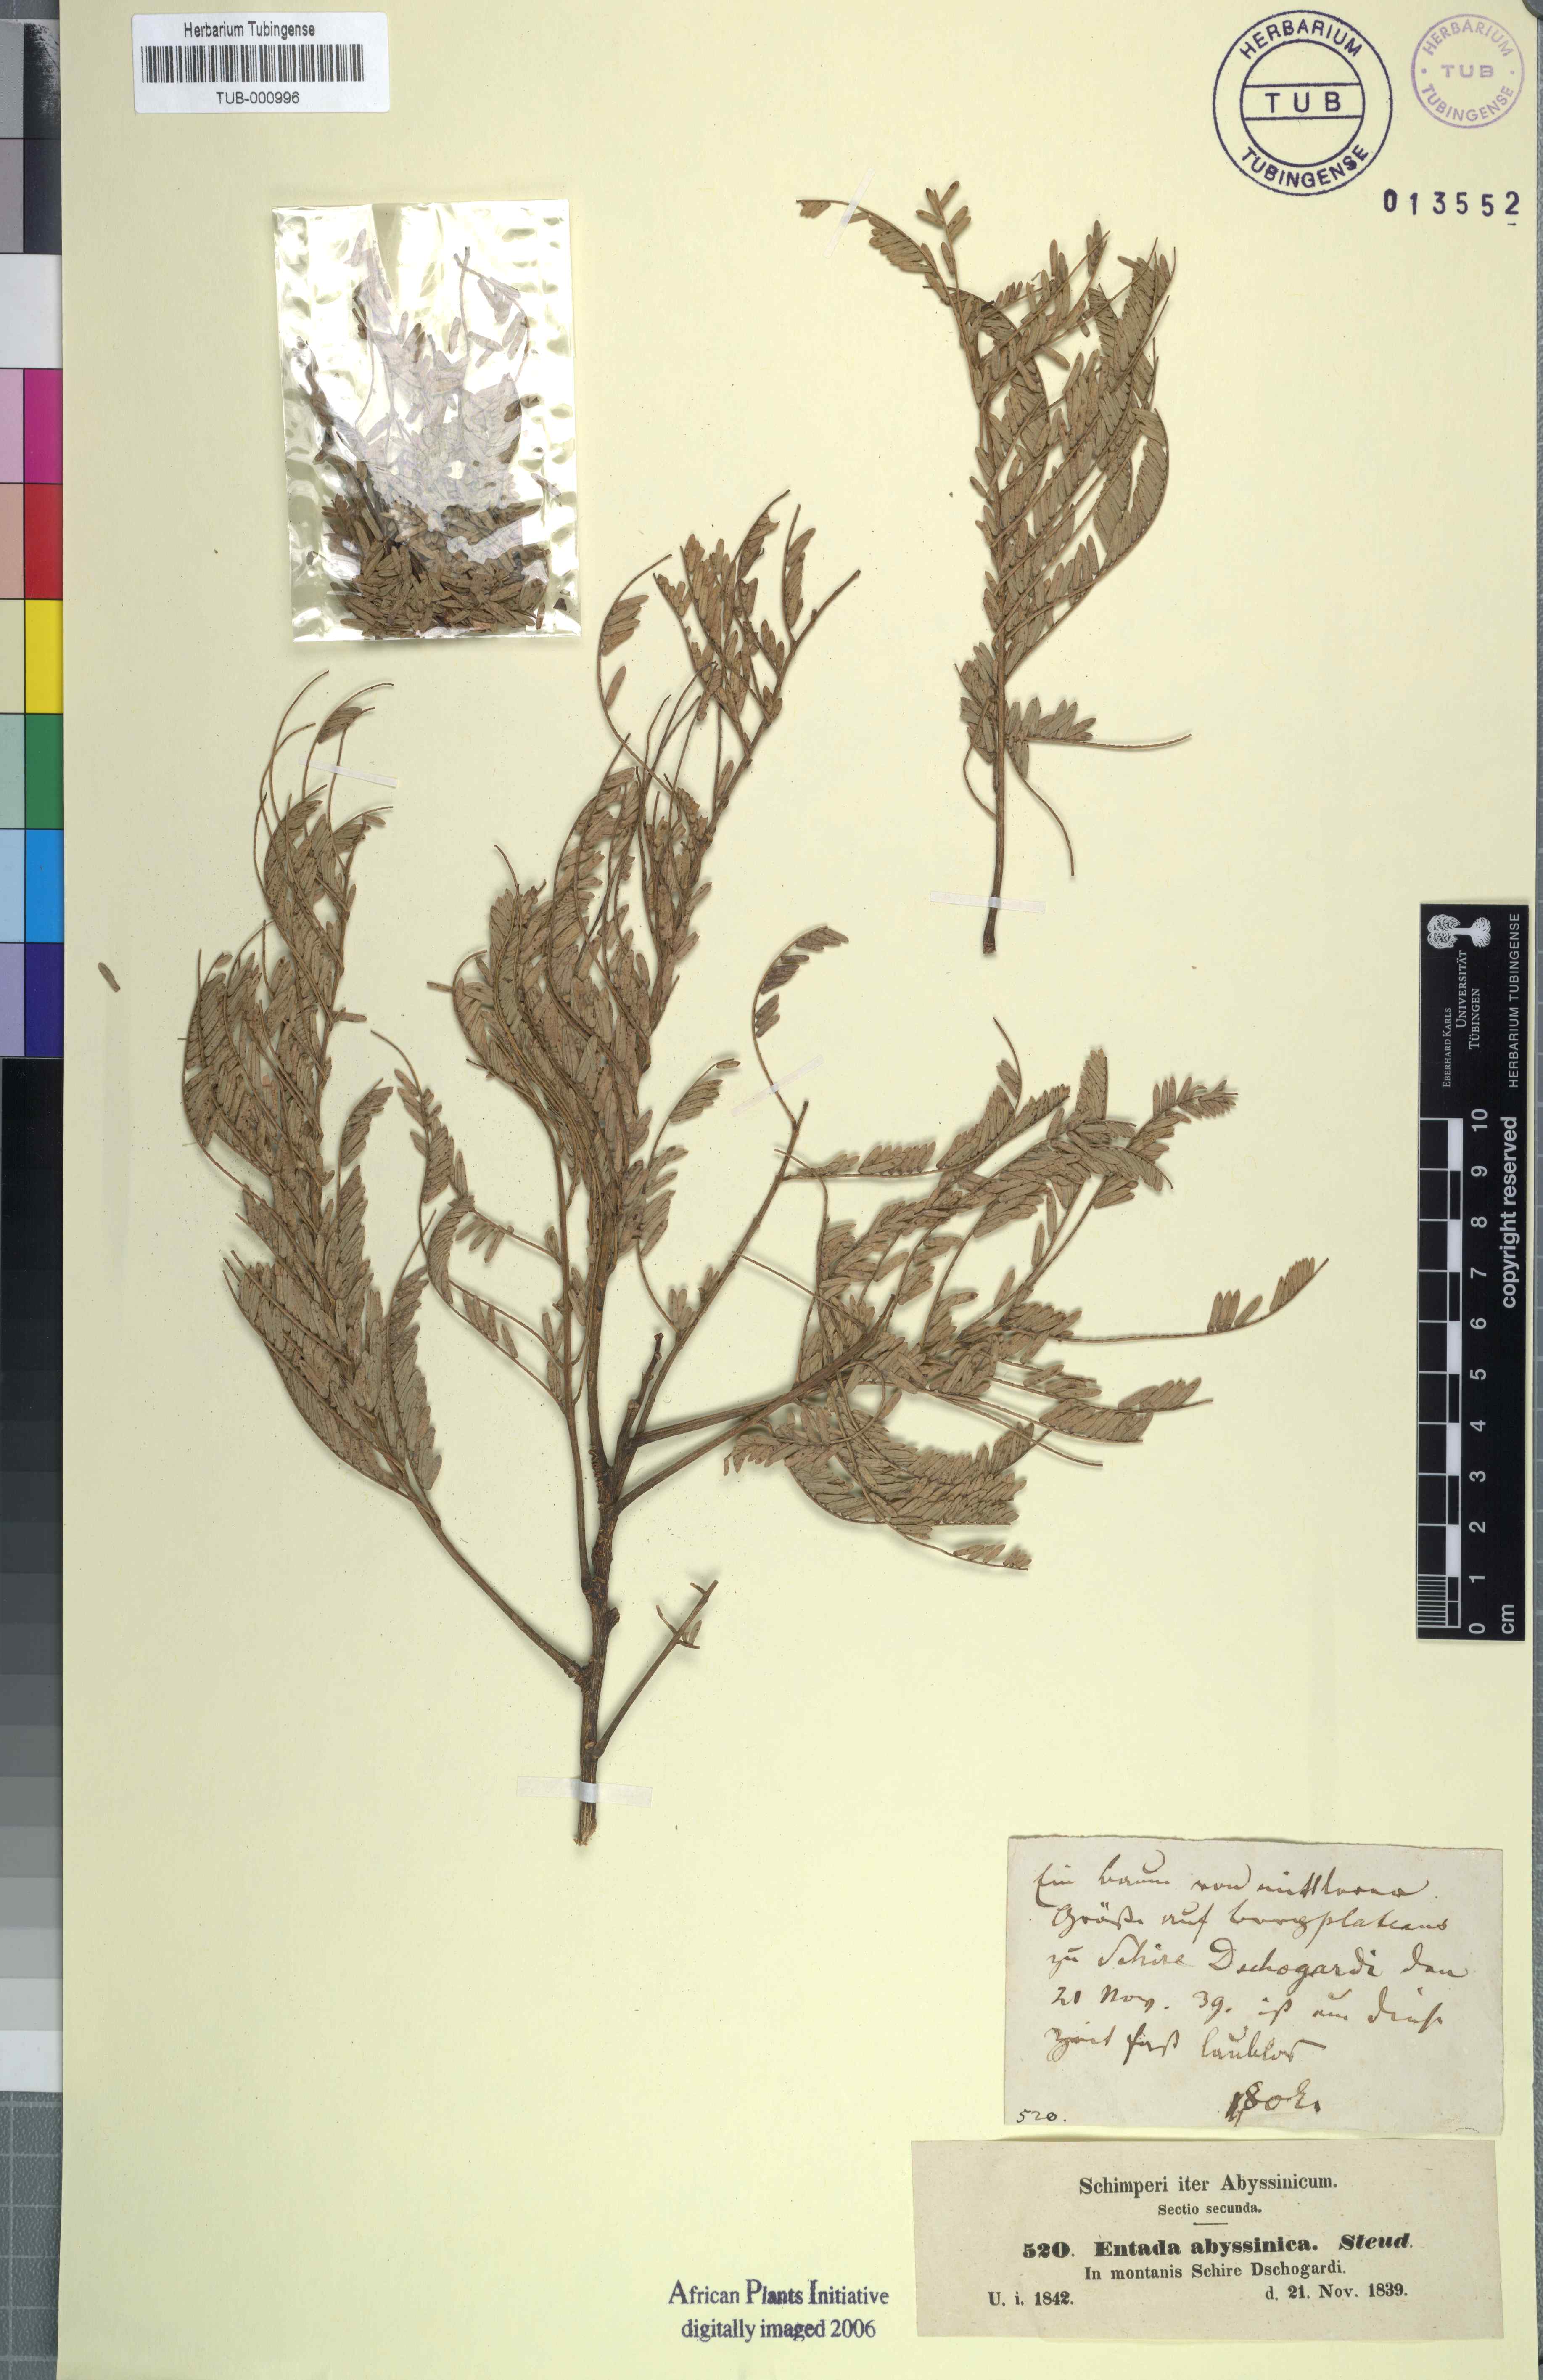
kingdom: Plantae
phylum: Tracheophyta
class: Magnoliopsida
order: Fabales
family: Fabaceae
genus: Entada
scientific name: Entada abyssinica
